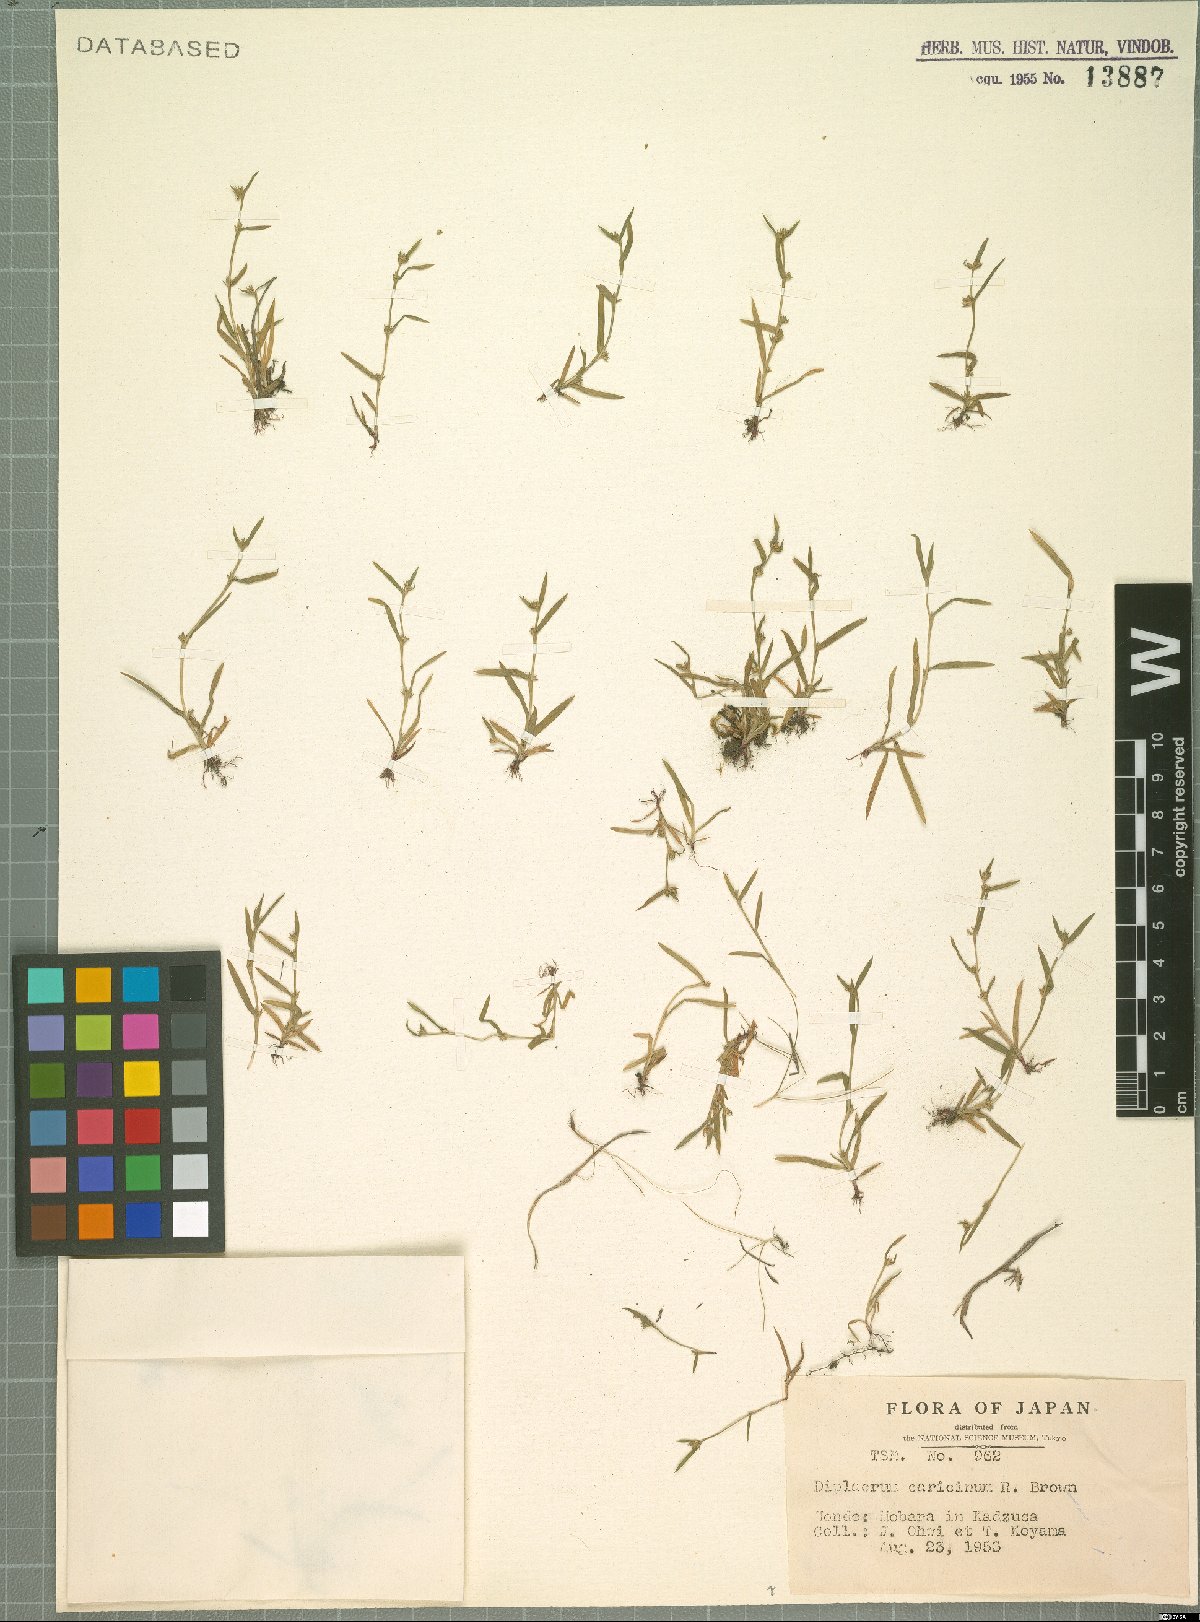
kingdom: Plantae
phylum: Tracheophyta
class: Liliopsida
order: Poales
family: Cyperaceae
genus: Diplacrum
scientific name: Diplacrum caricinum
